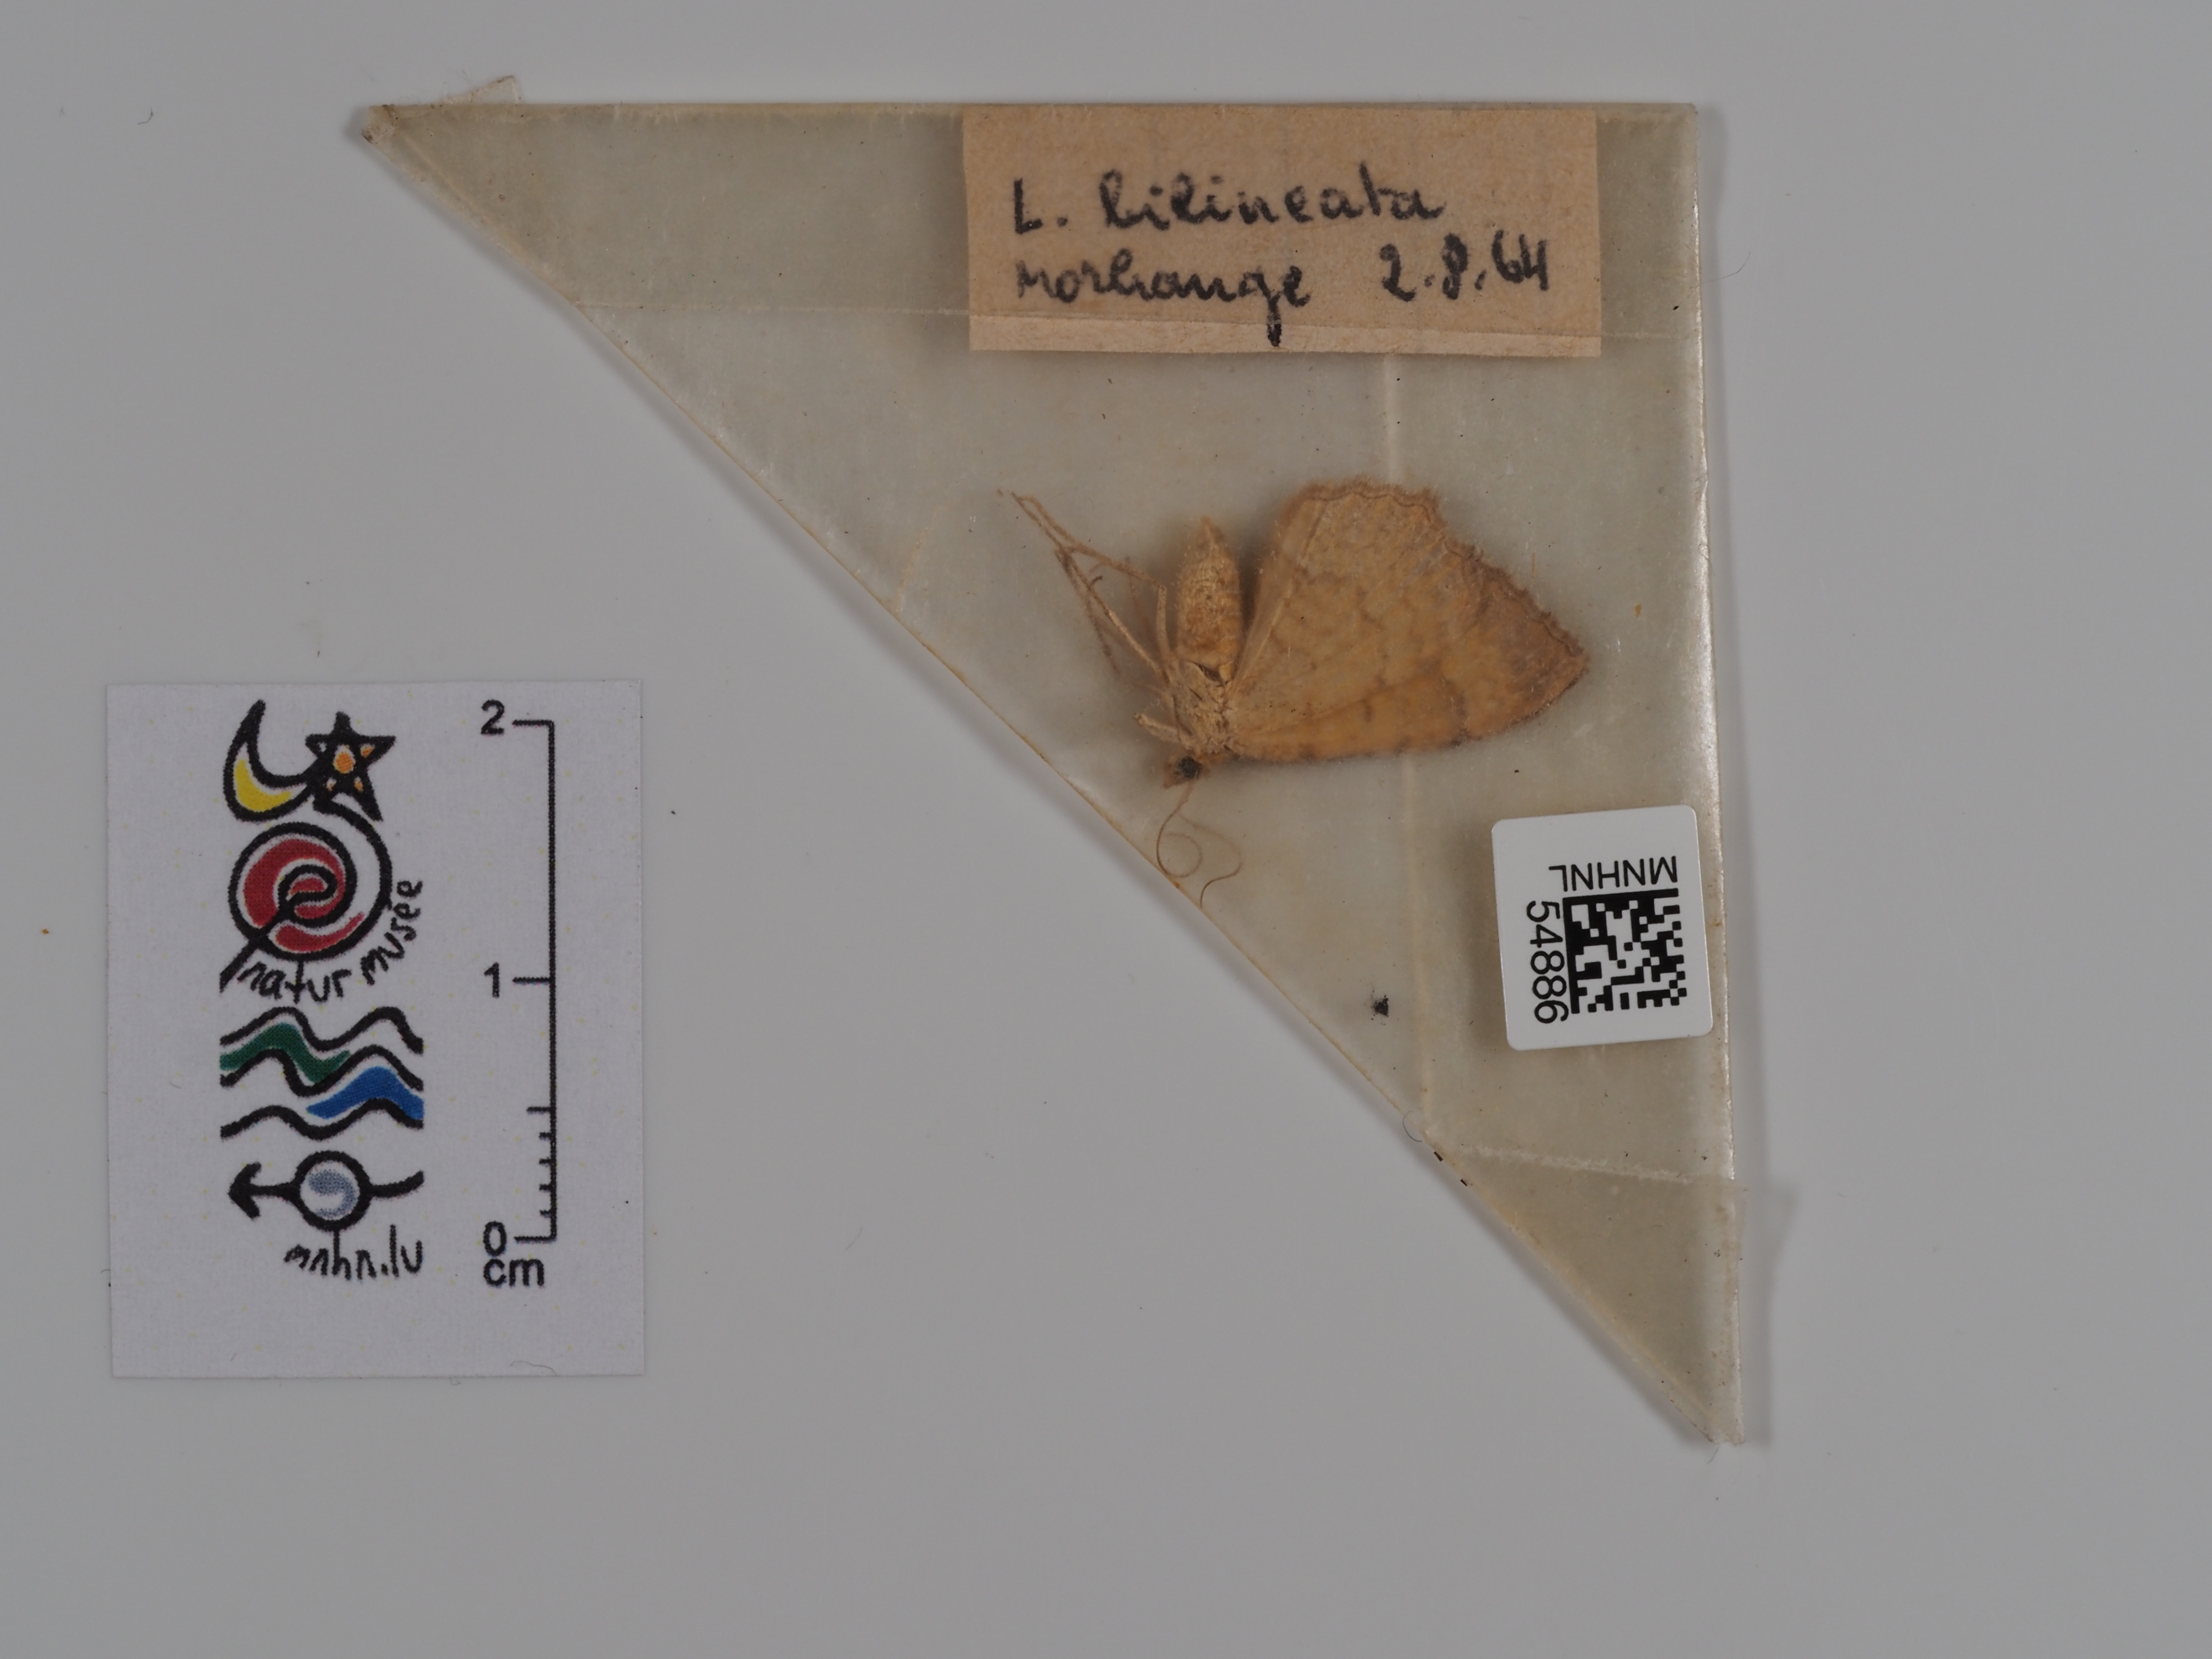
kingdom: Animalia
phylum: Arthropoda
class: Insecta
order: Lepidoptera
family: Notodontidae
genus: Lochmaeus
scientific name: Lochmaeus bilineata
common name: Double-lined prominent
